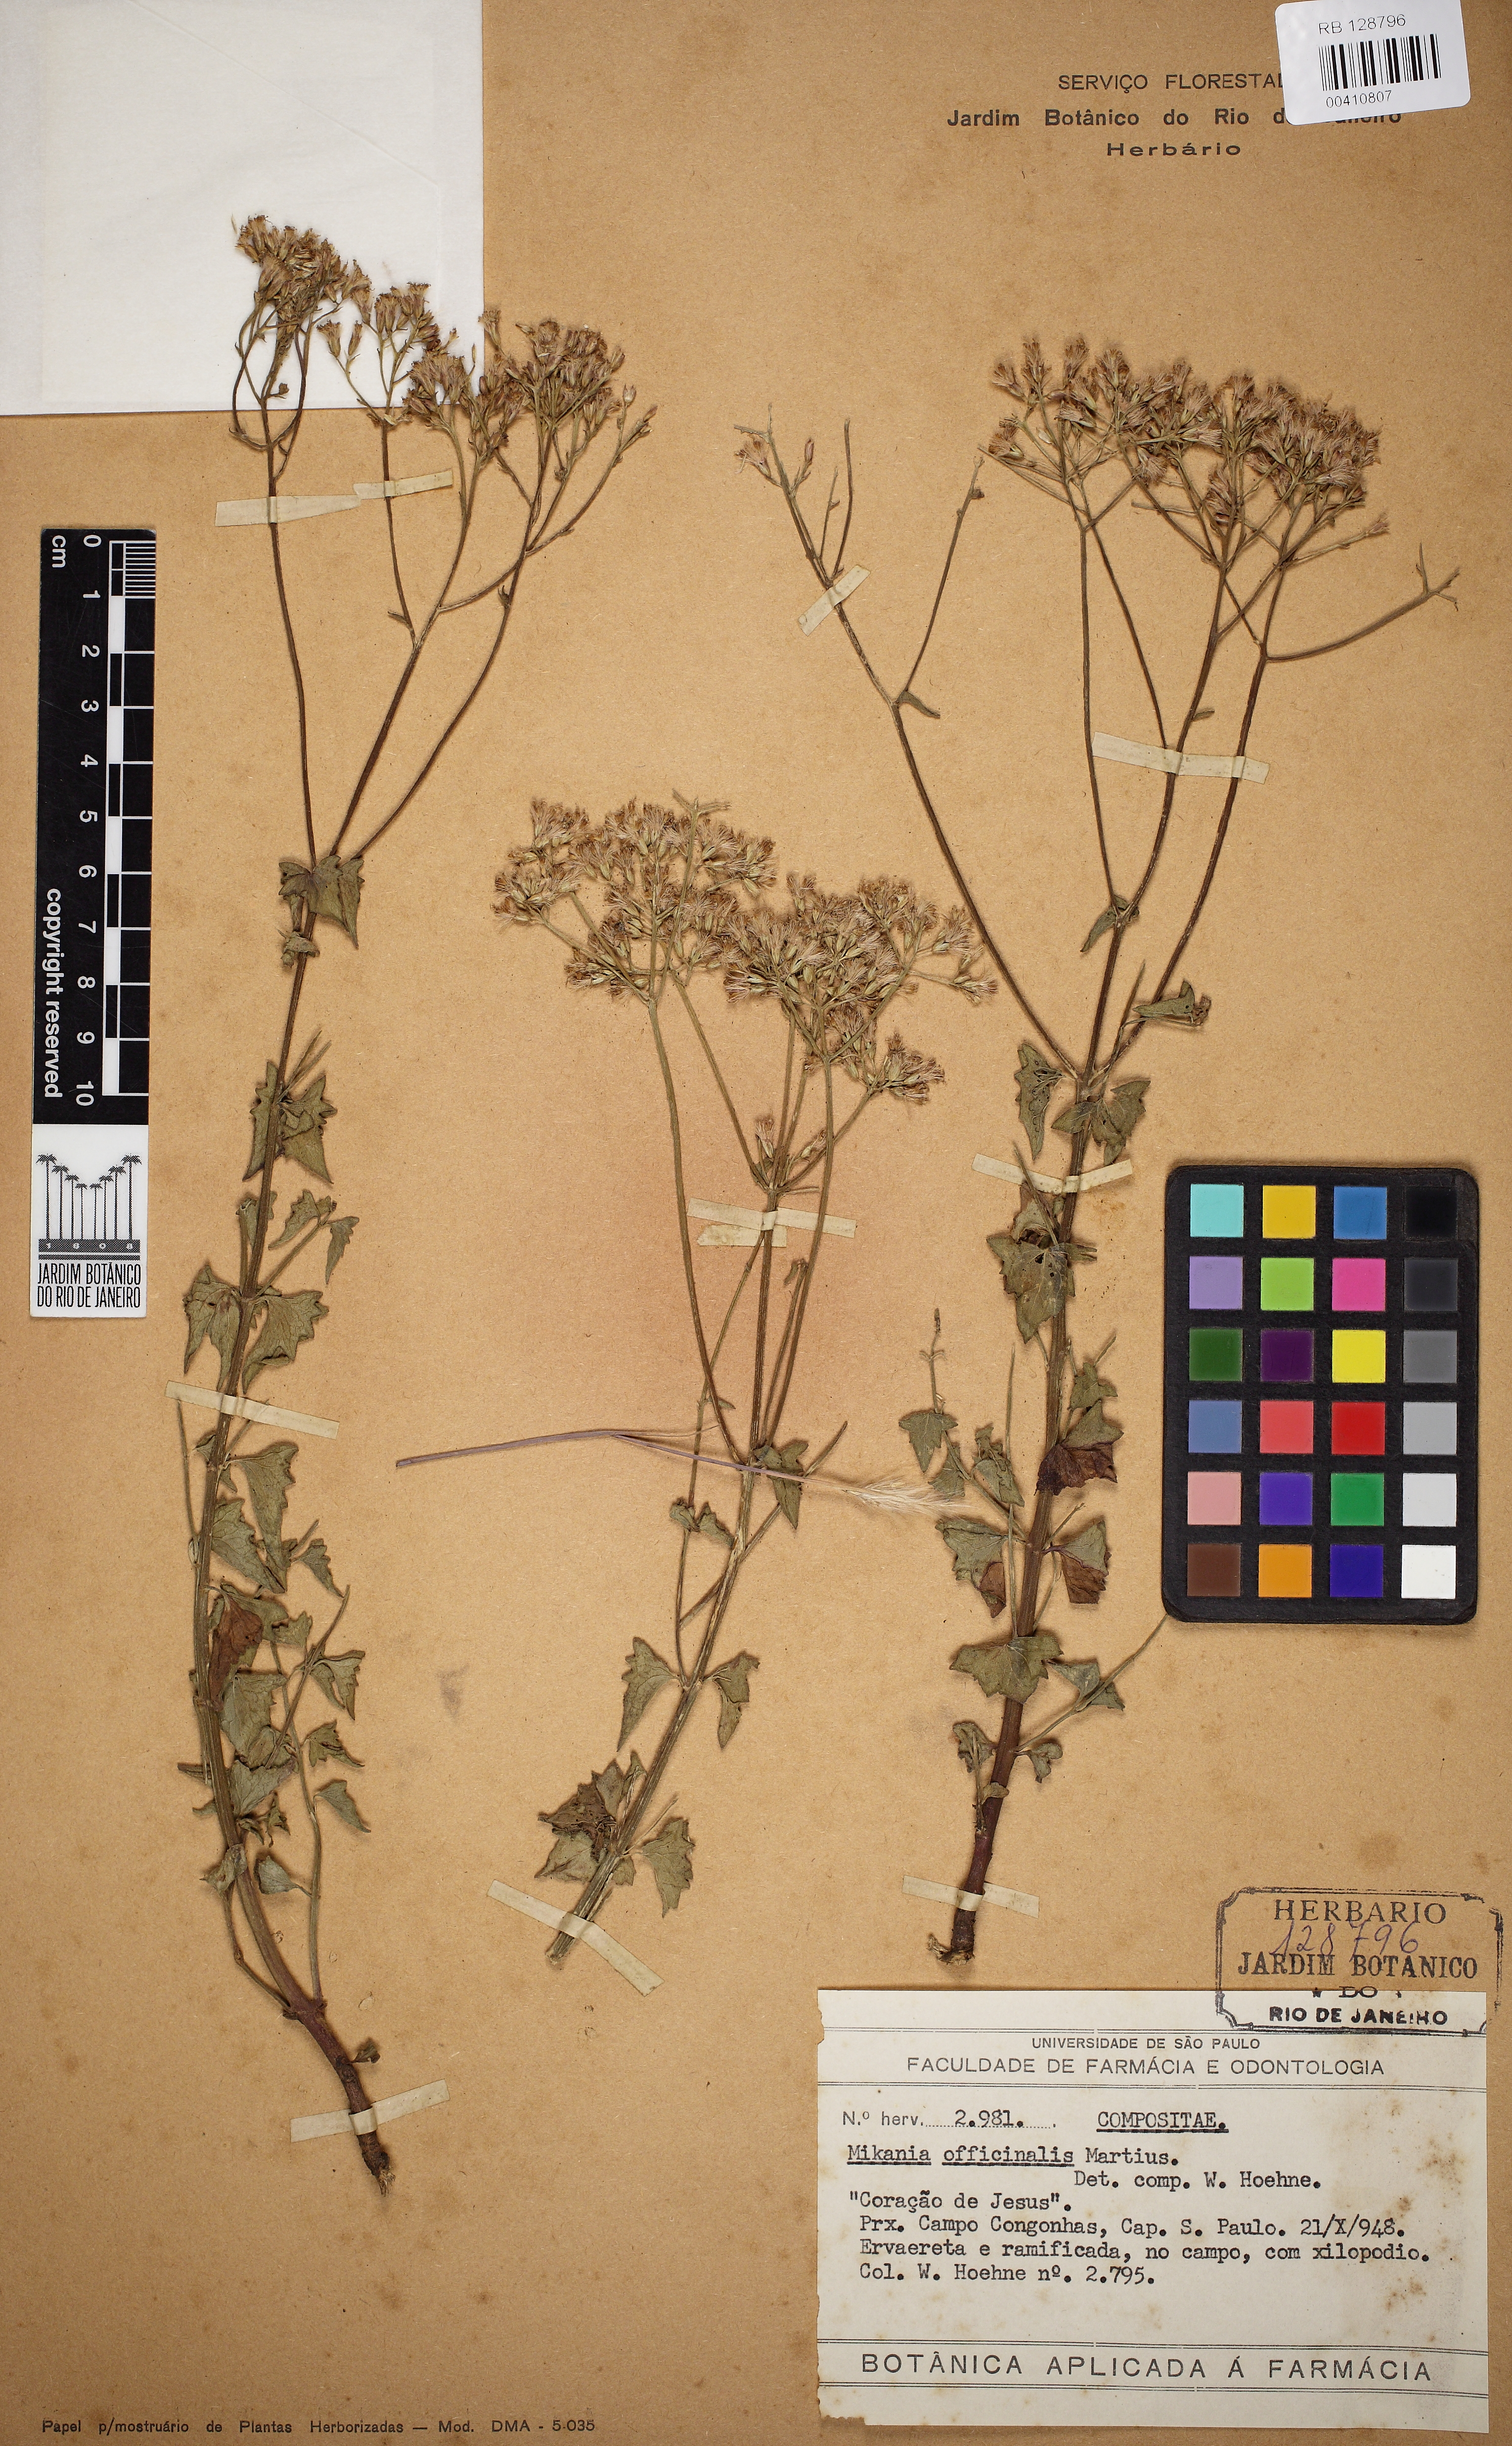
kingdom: Plantae
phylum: Tracheophyta
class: Magnoliopsida
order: Asterales
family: Asteraceae
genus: Mikania
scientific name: Mikania officinalis
